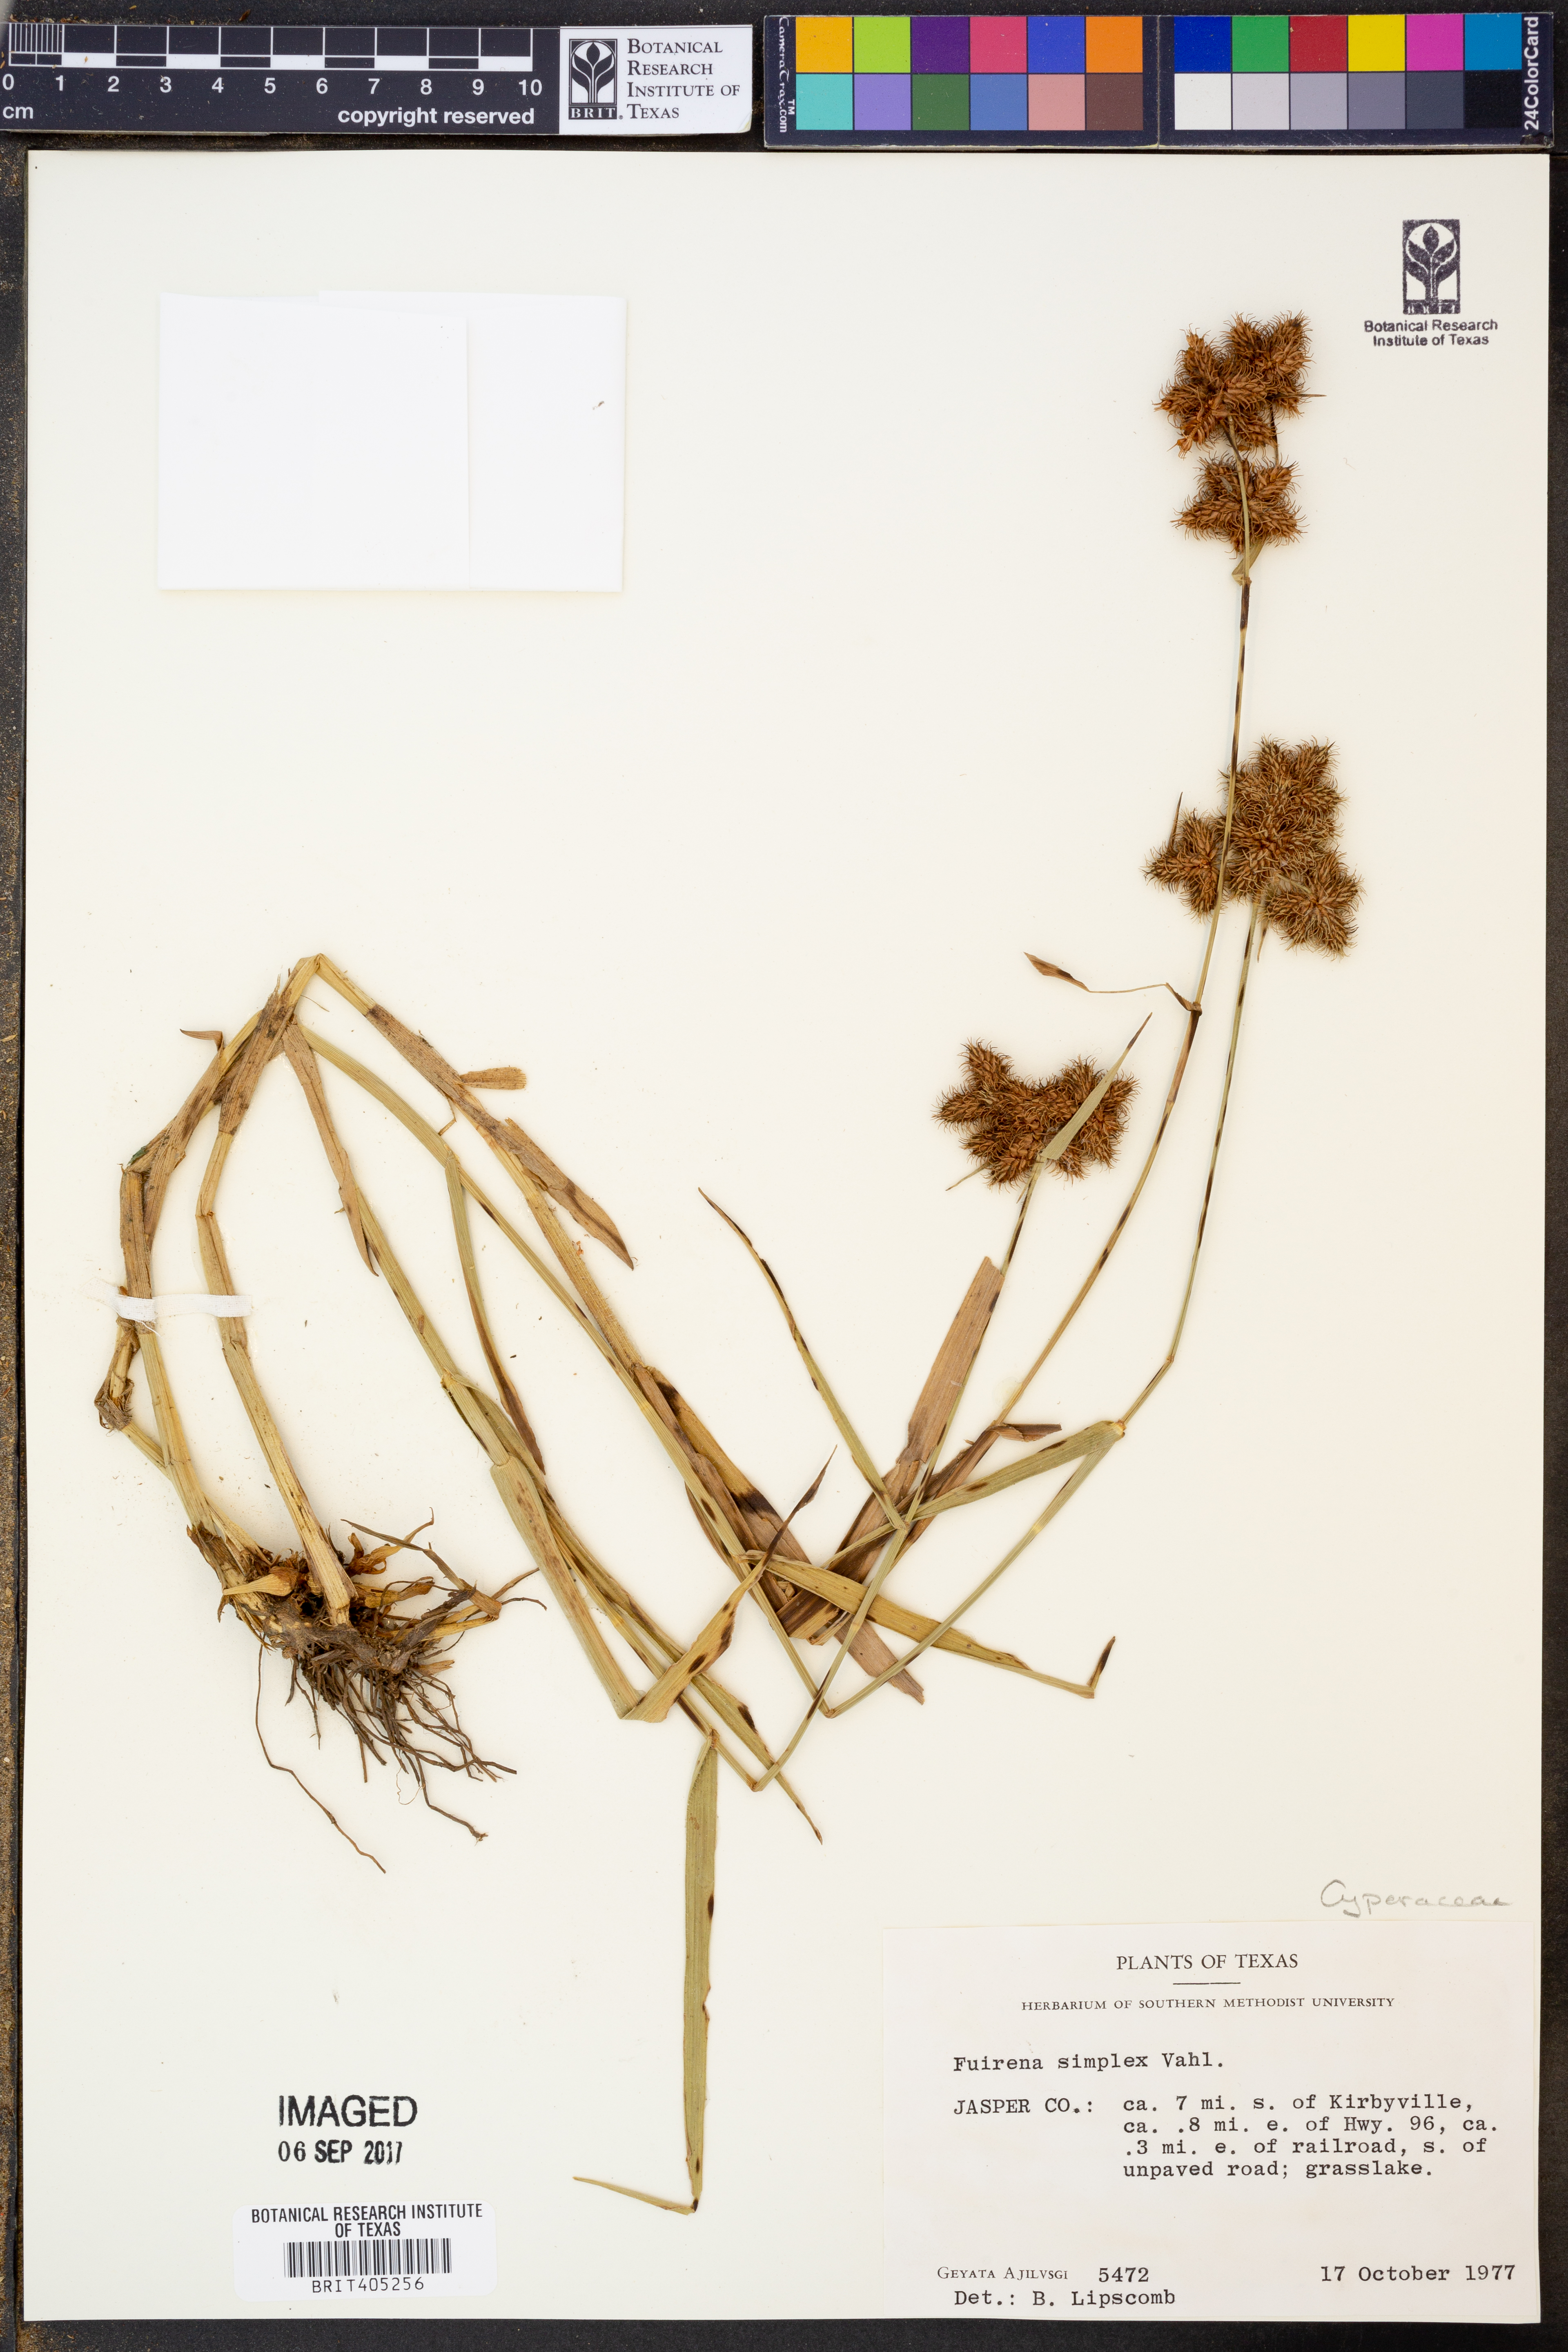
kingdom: Plantae
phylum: Tracheophyta
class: Liliopsida
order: Poales
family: Cyperaceae
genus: Fuirena
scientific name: Fuirena simplex
